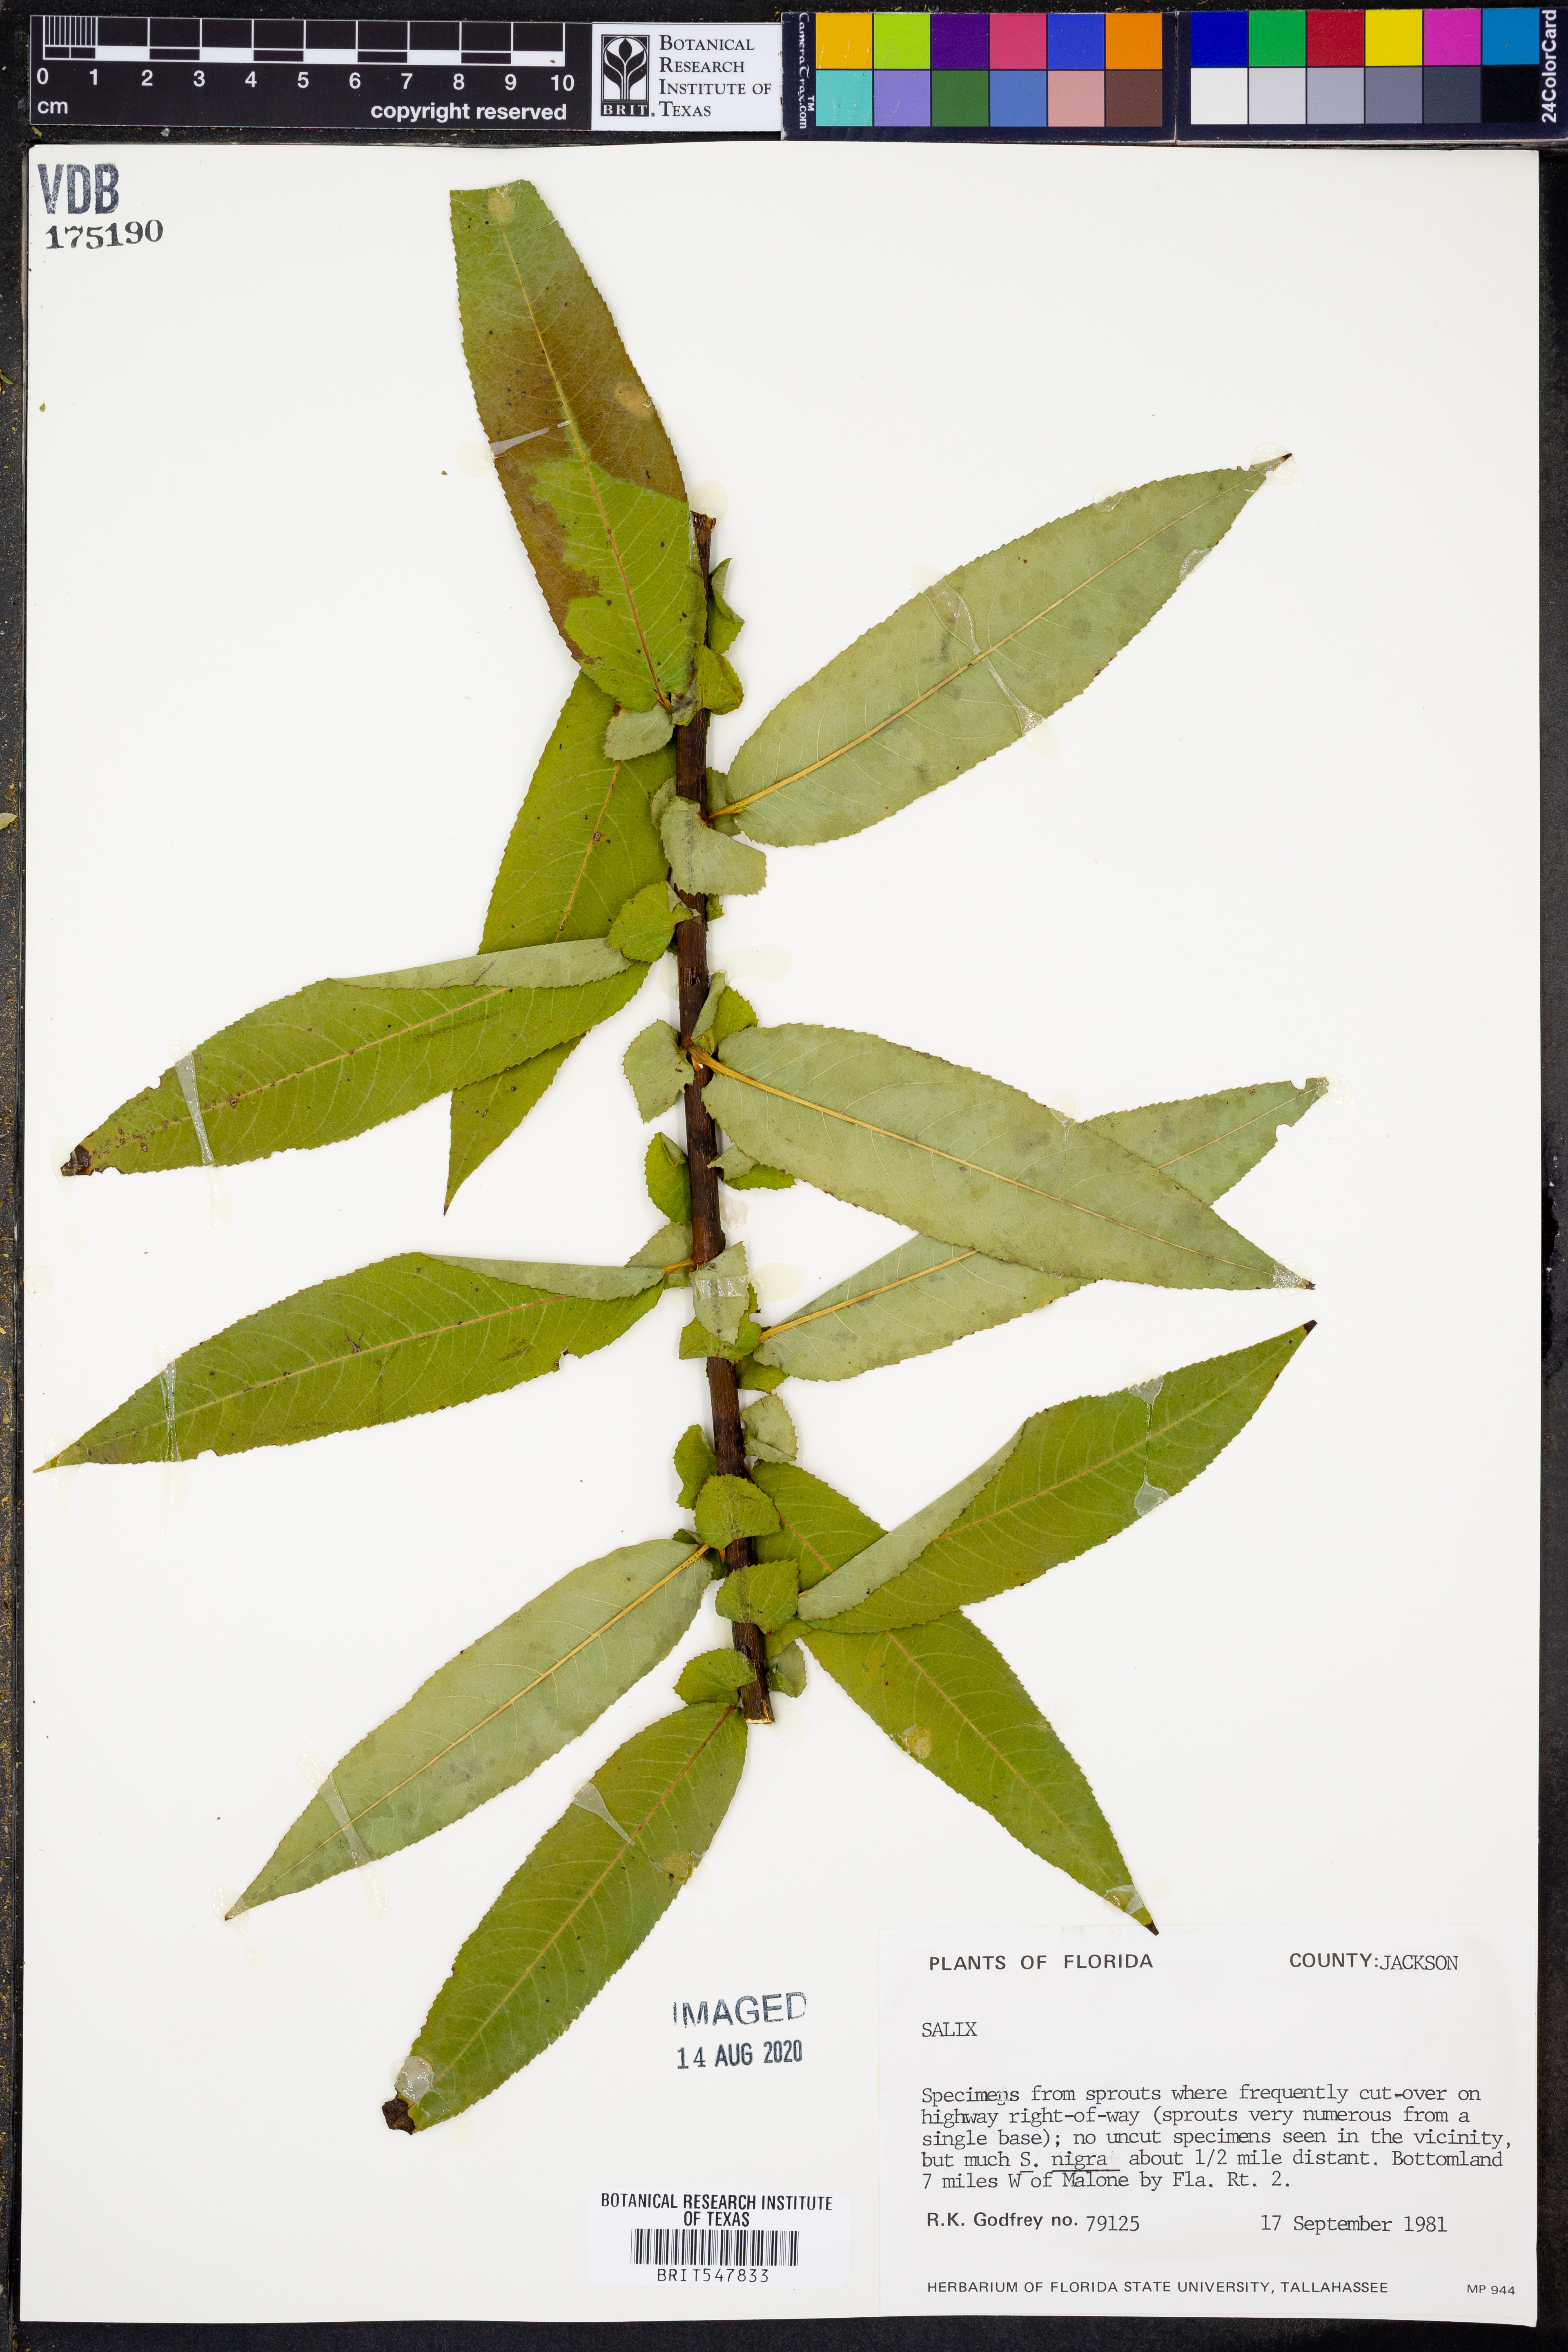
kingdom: Plantae
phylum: Tracheophyta
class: Magnoliopsida
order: Malpighiales
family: Salicaceae
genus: Salix
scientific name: Salix
